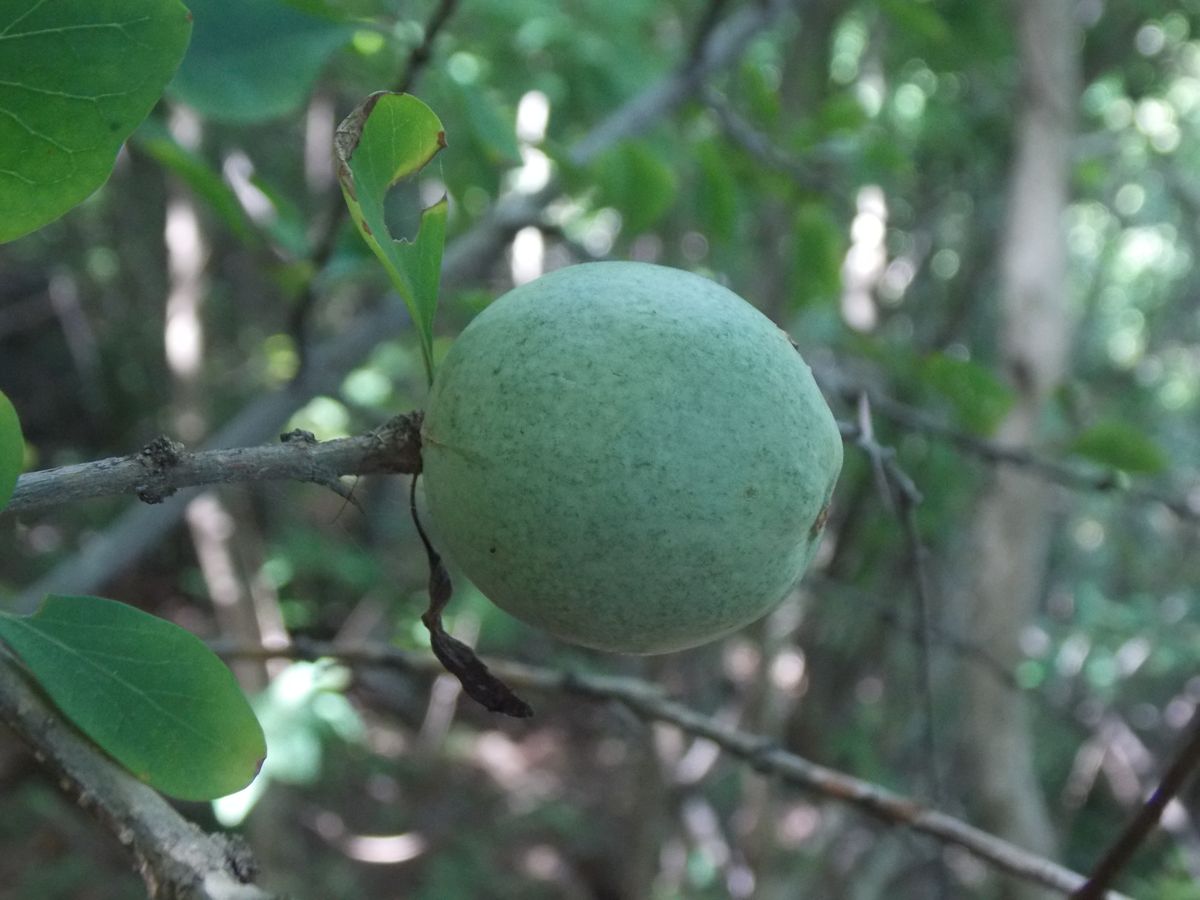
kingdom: Plantae
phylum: Tracheophyta
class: Magnoliopsida
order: Gentianales
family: Rubiaceae
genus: Randia
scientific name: Randia thurberi
